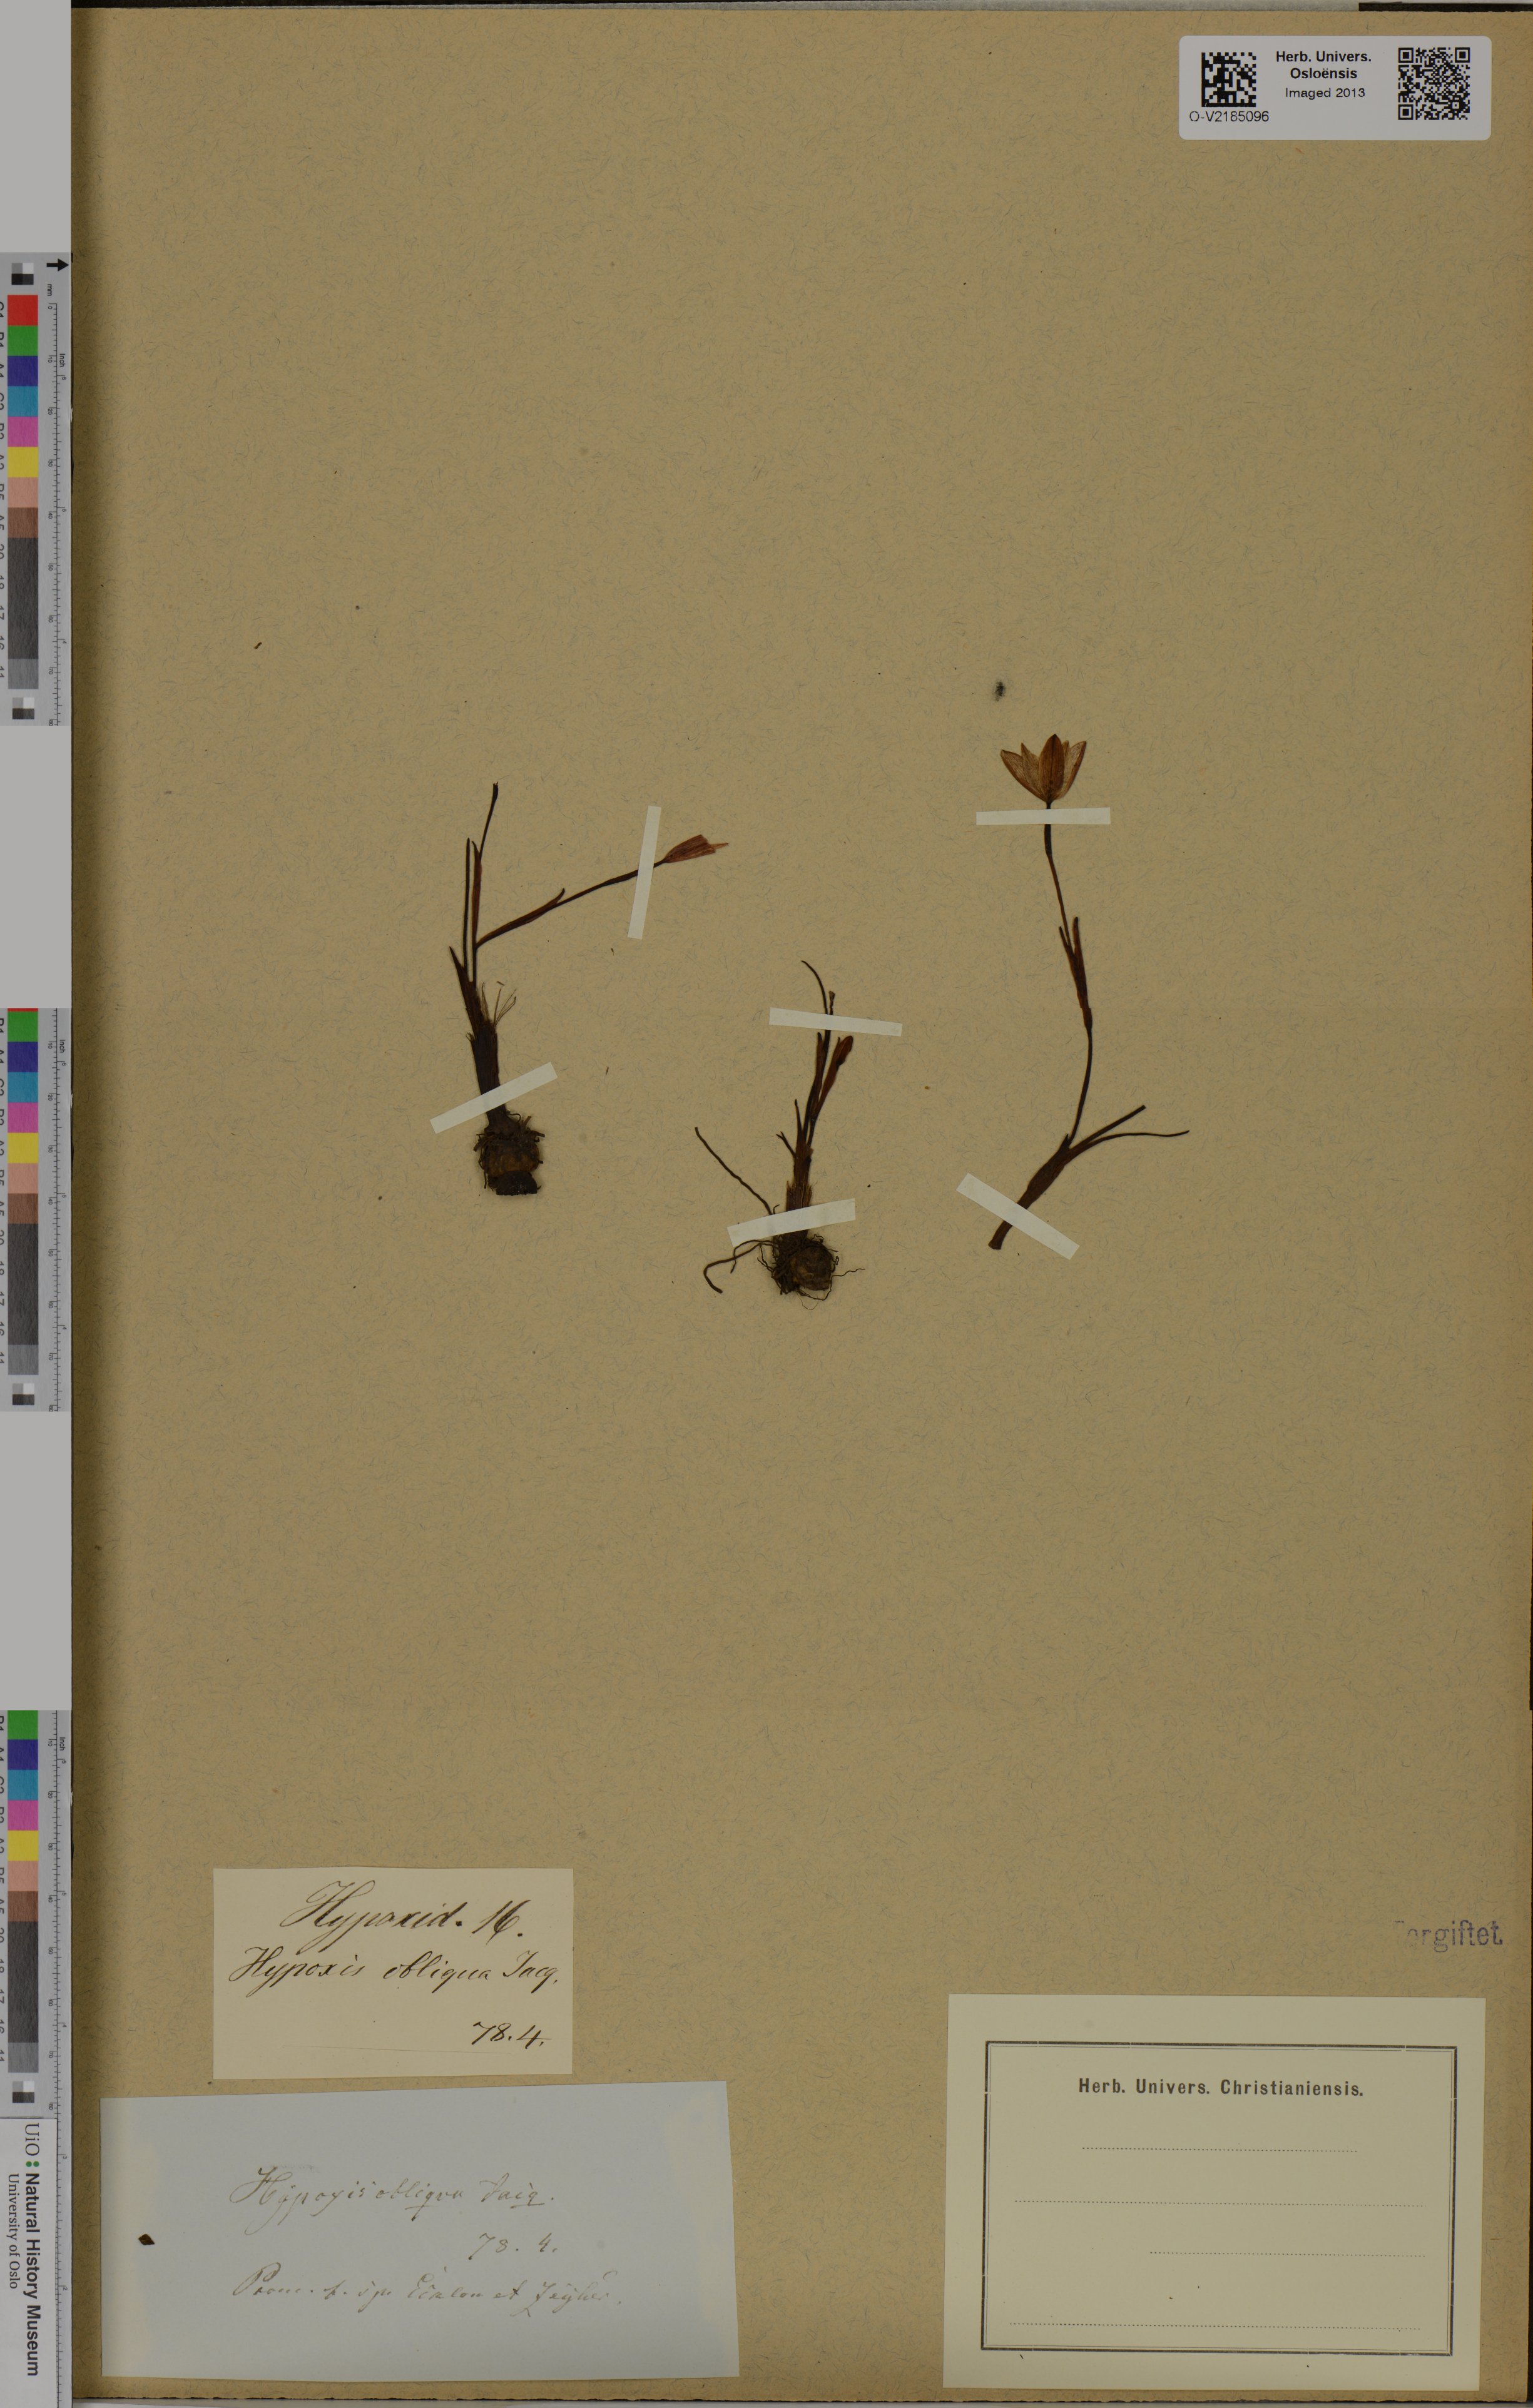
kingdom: Plantae
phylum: Tracheophyta
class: Liliopsida
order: Asparagales
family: Hypoxidaceae
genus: Hypoxis
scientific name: Hypoxis
